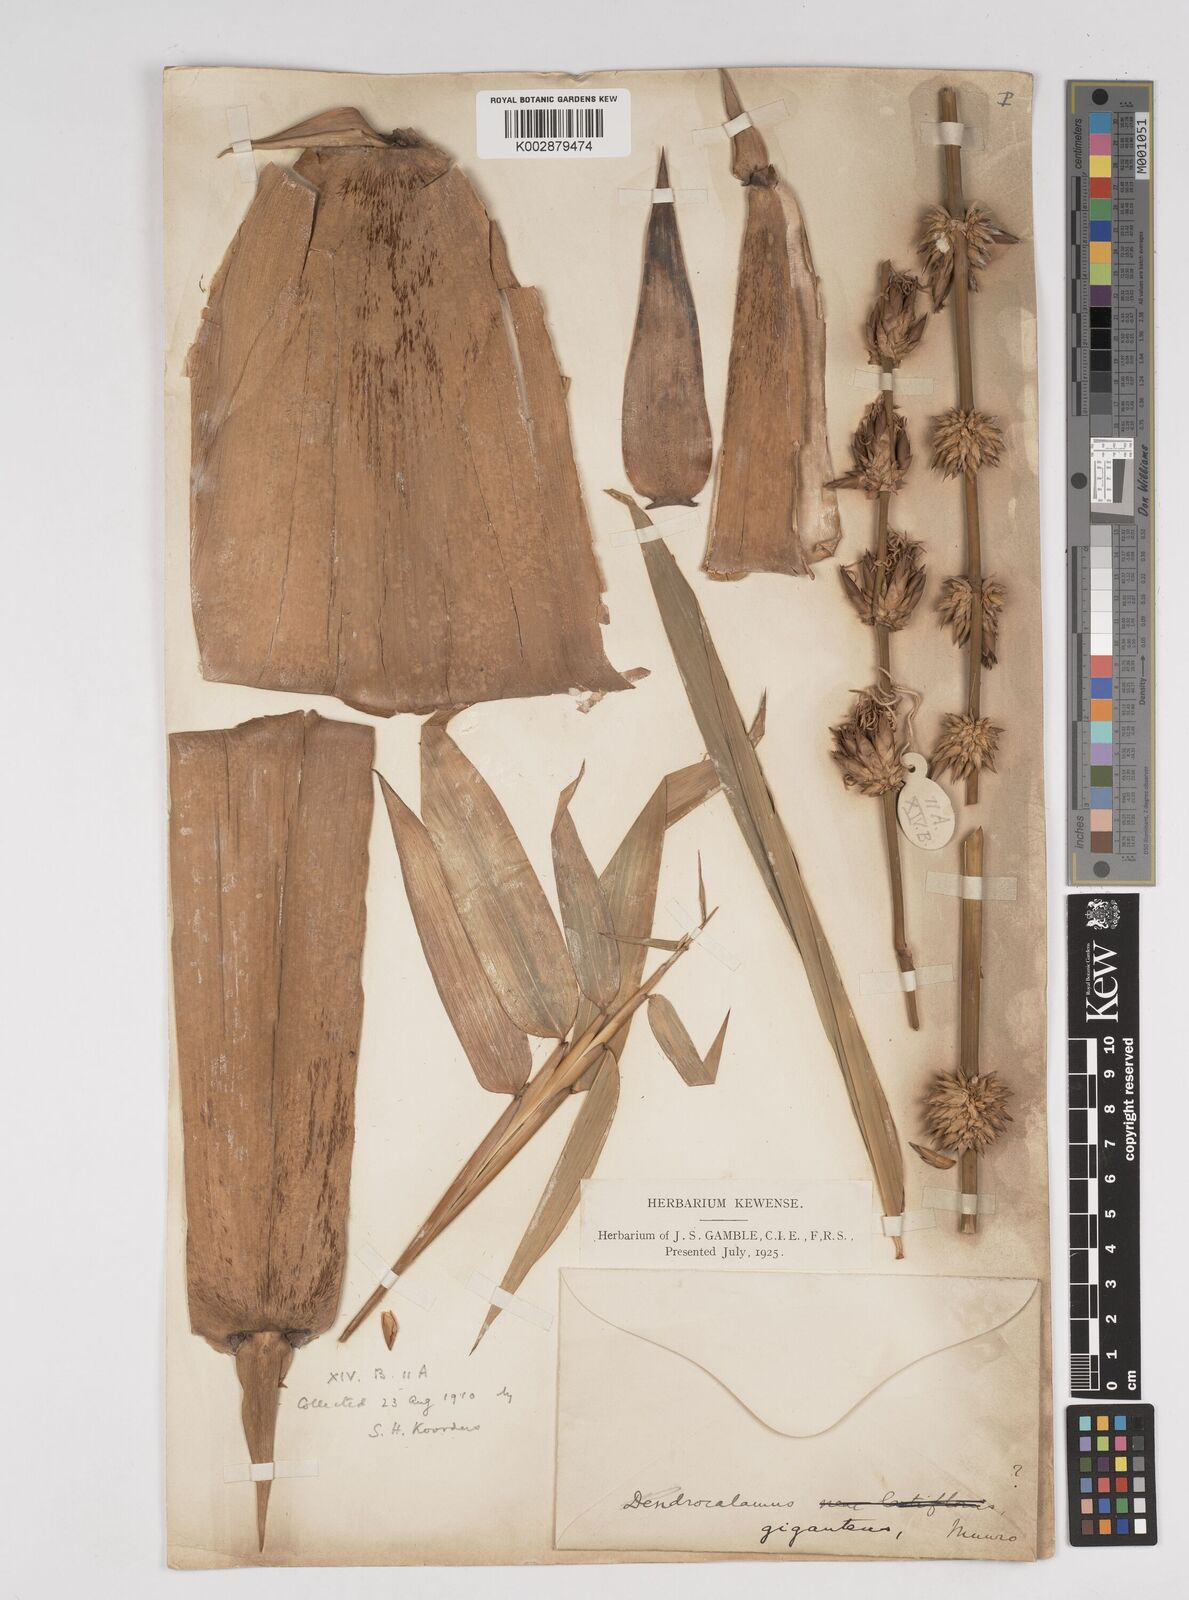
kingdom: Plantae
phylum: Tracheophyta
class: Liliopsida
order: Poales
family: Poaceae
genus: Dendrocalamus
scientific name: Dendrocalamus
